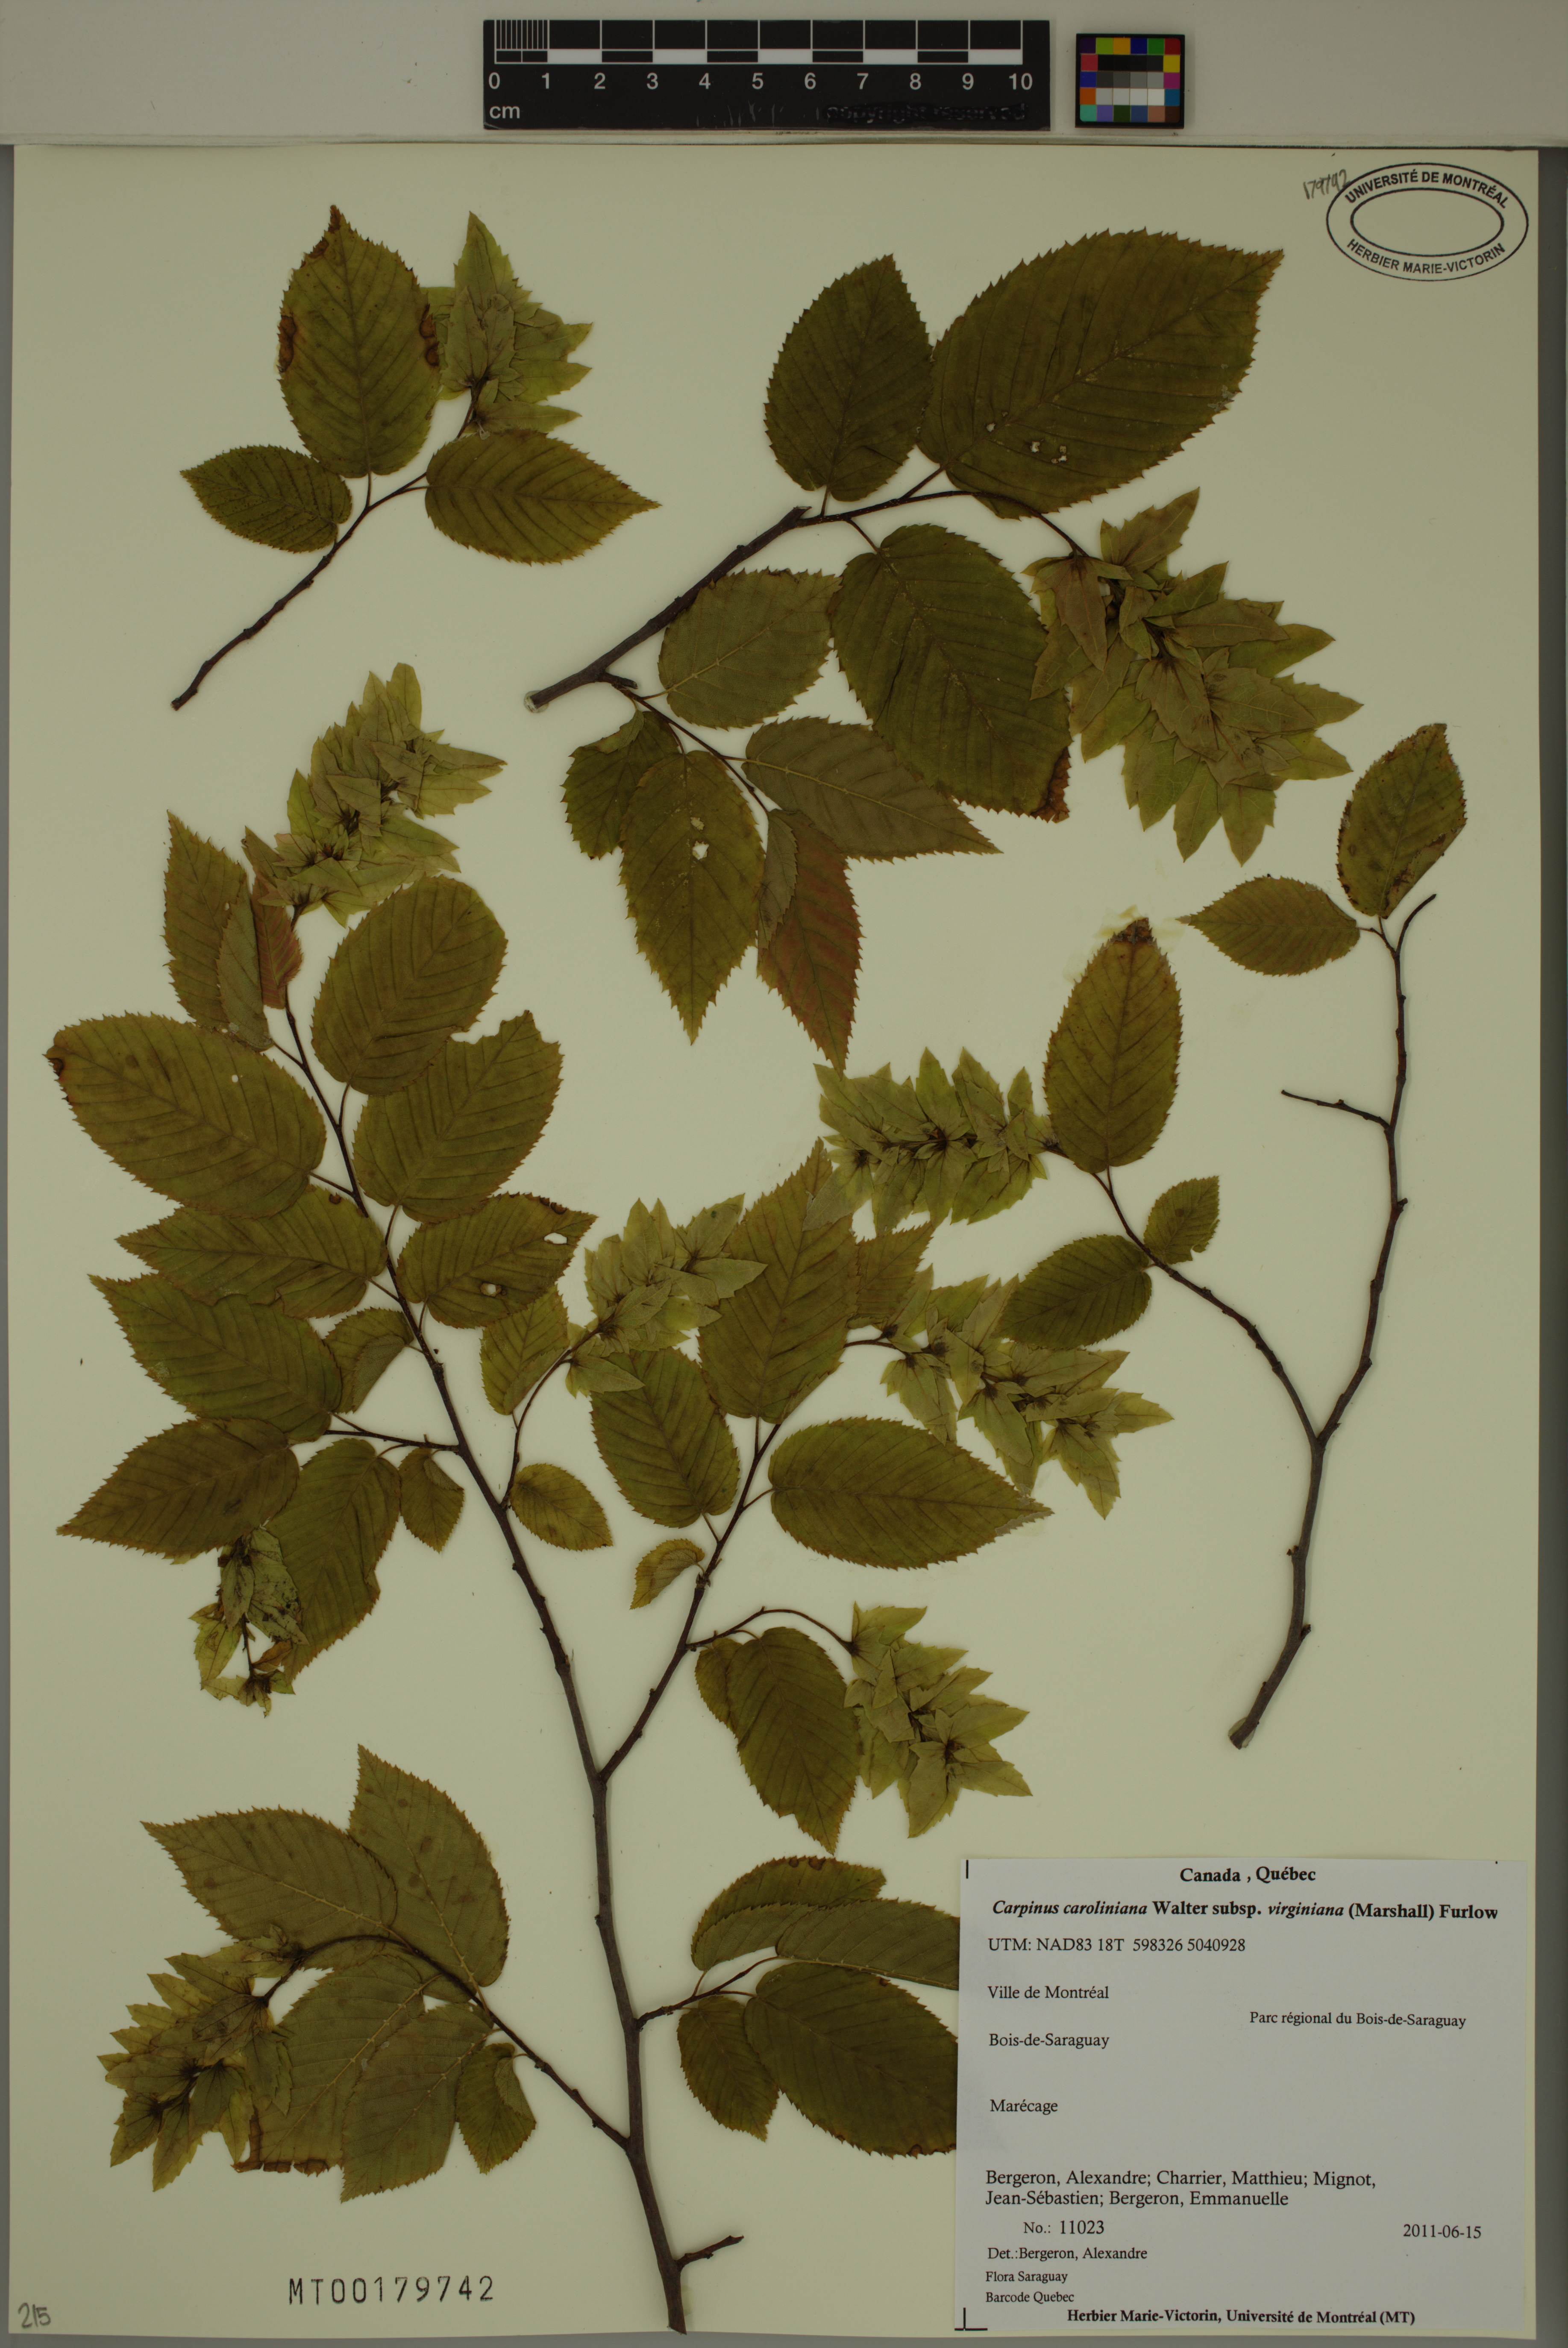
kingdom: Plantae
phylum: Tracheophyta
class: Magnoliopsida
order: Fagales
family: Betulaceae
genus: Carpinus
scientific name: Carpinus caroliniana
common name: American hornbeam
